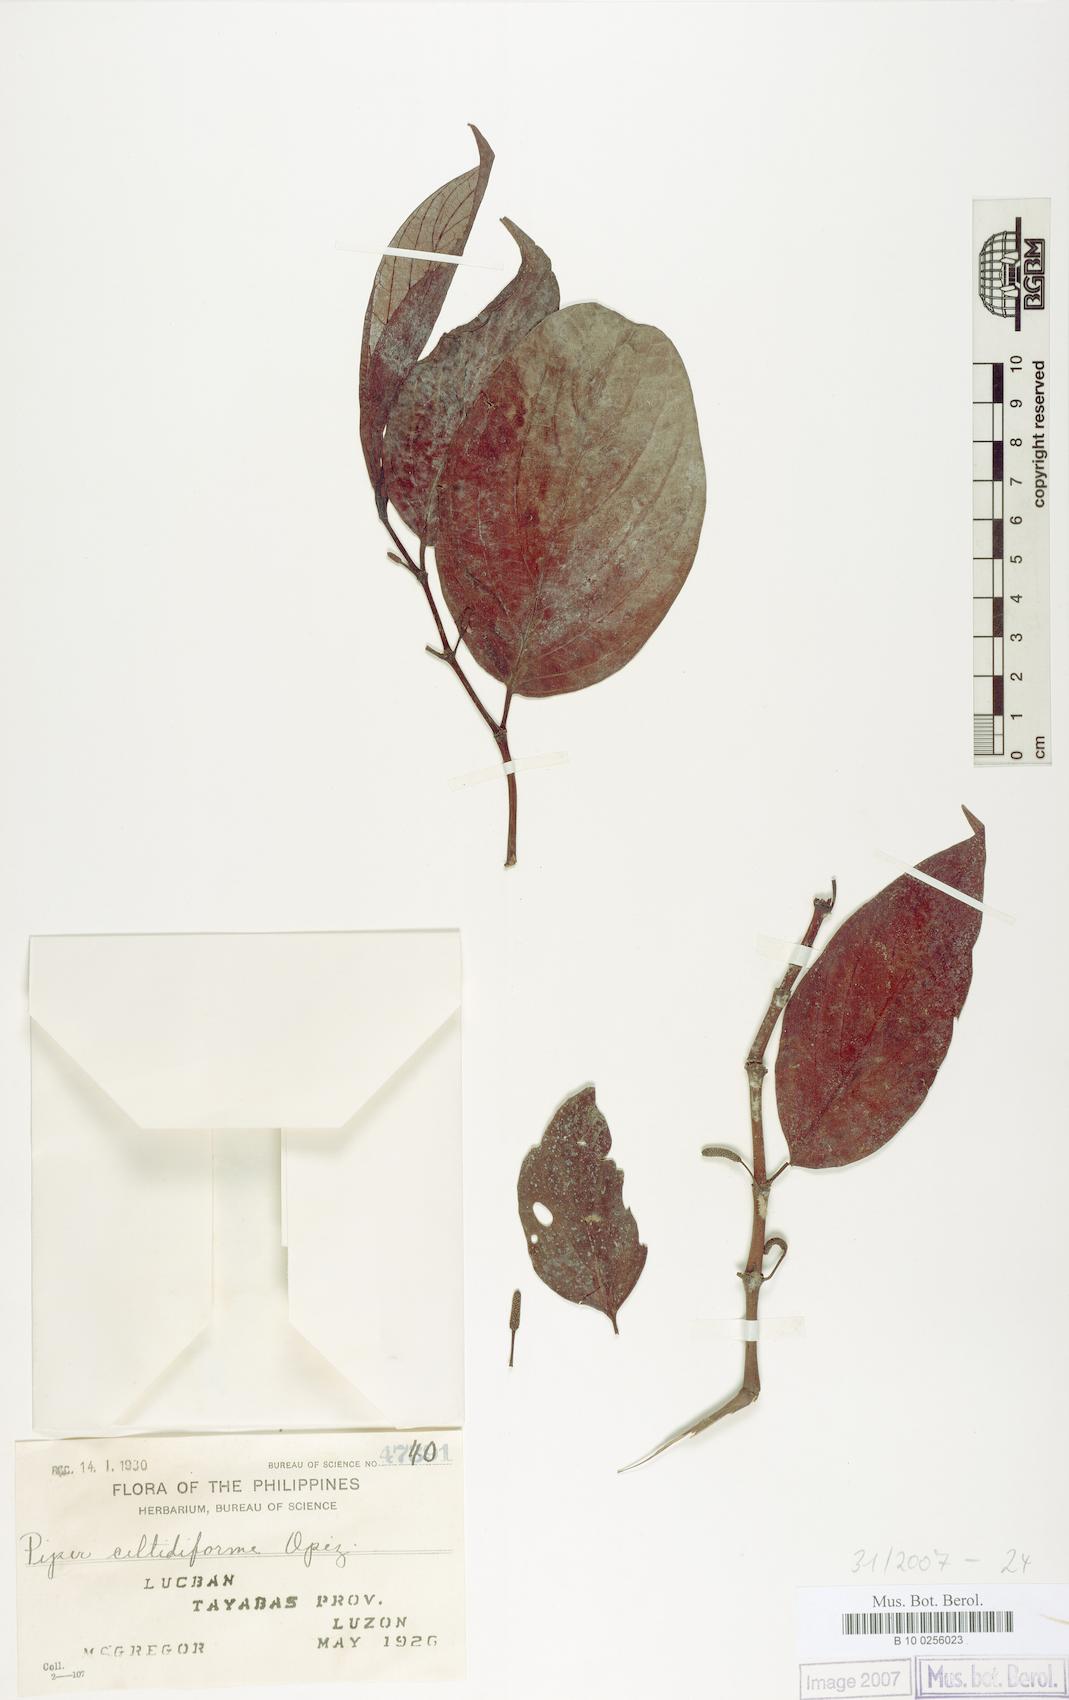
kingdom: Plantae
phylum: Tracheophyta
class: Magnoliopsida
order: Piperales
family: Piperaceae
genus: Piper
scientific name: Piper celtidiforme
